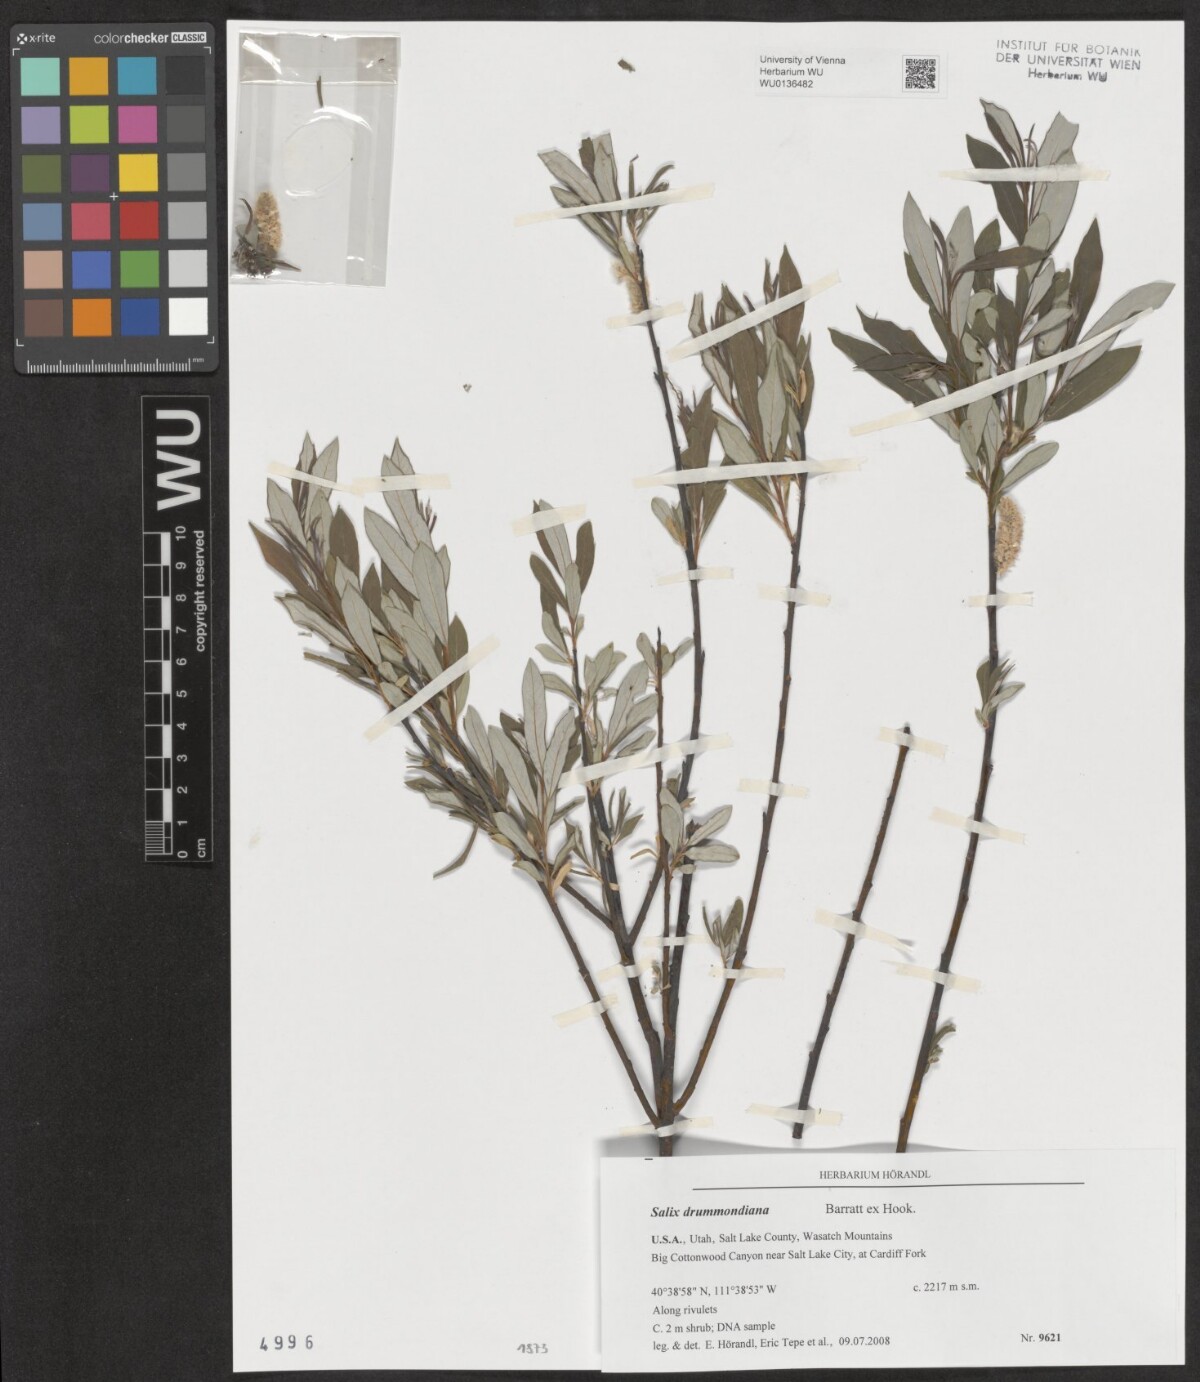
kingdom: Plantae
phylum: Tracheophyta
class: Magnoliopsida
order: Malpighiales
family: Salicaceae
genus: Salix
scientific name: Salix drummondiana
